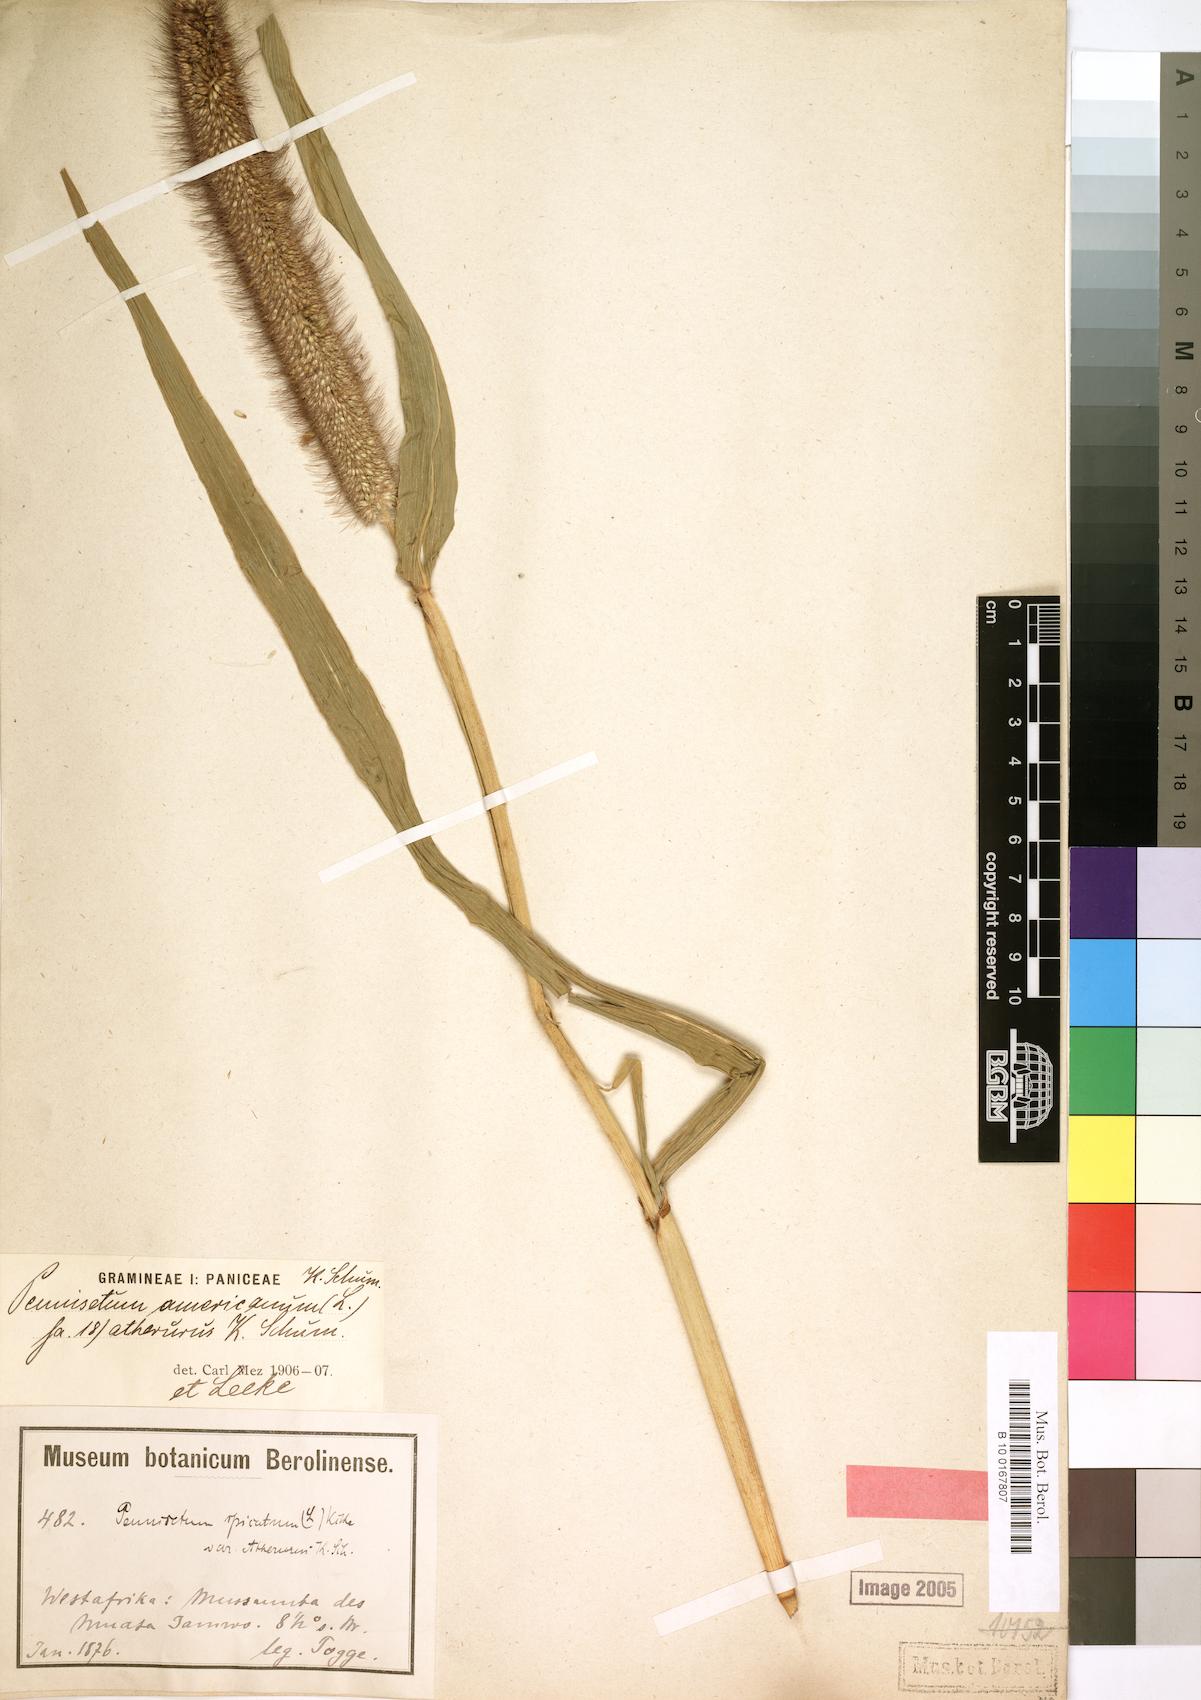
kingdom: Plantae
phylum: Tracheophyta
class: Liliopsida
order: Poales
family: Poaceae
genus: Cenchrus
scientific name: Cenchrus americanus
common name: Pearl millet
